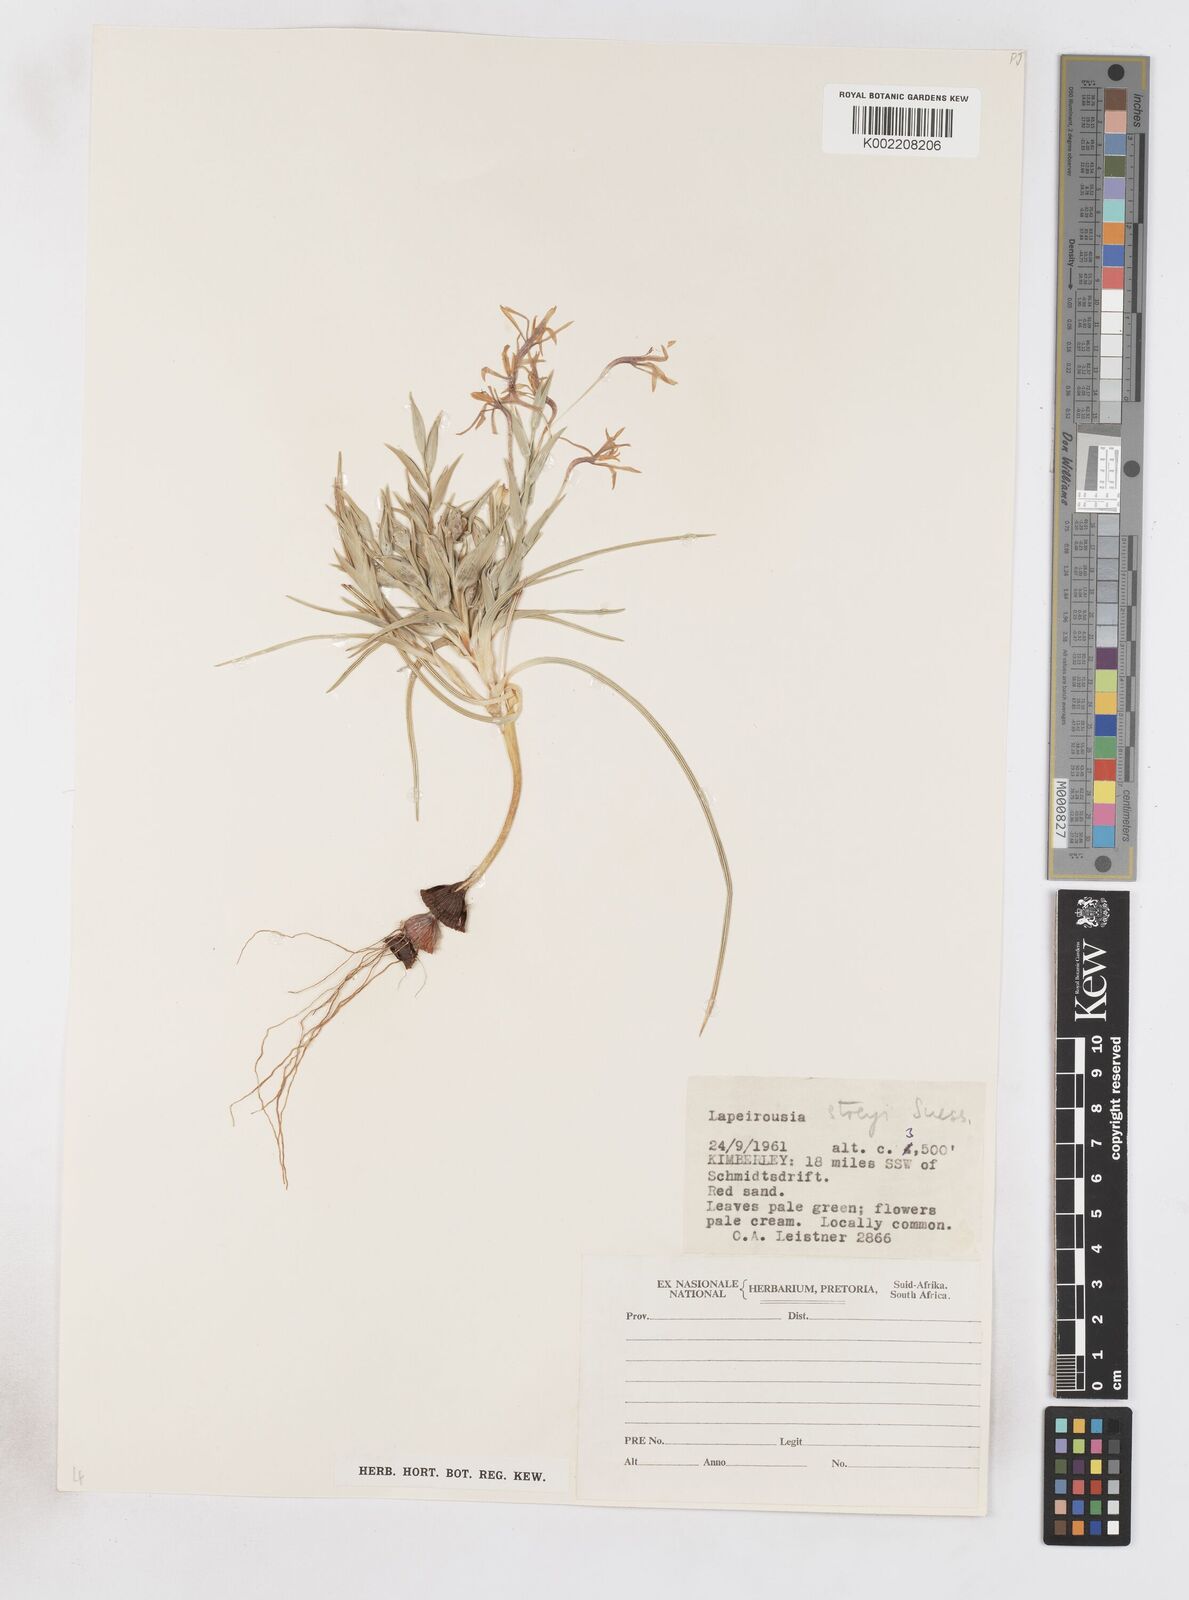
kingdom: Plantae
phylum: Tracheophyta
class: Liliopsida
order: Asparagales
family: Iridaceae
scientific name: Iridaceae
